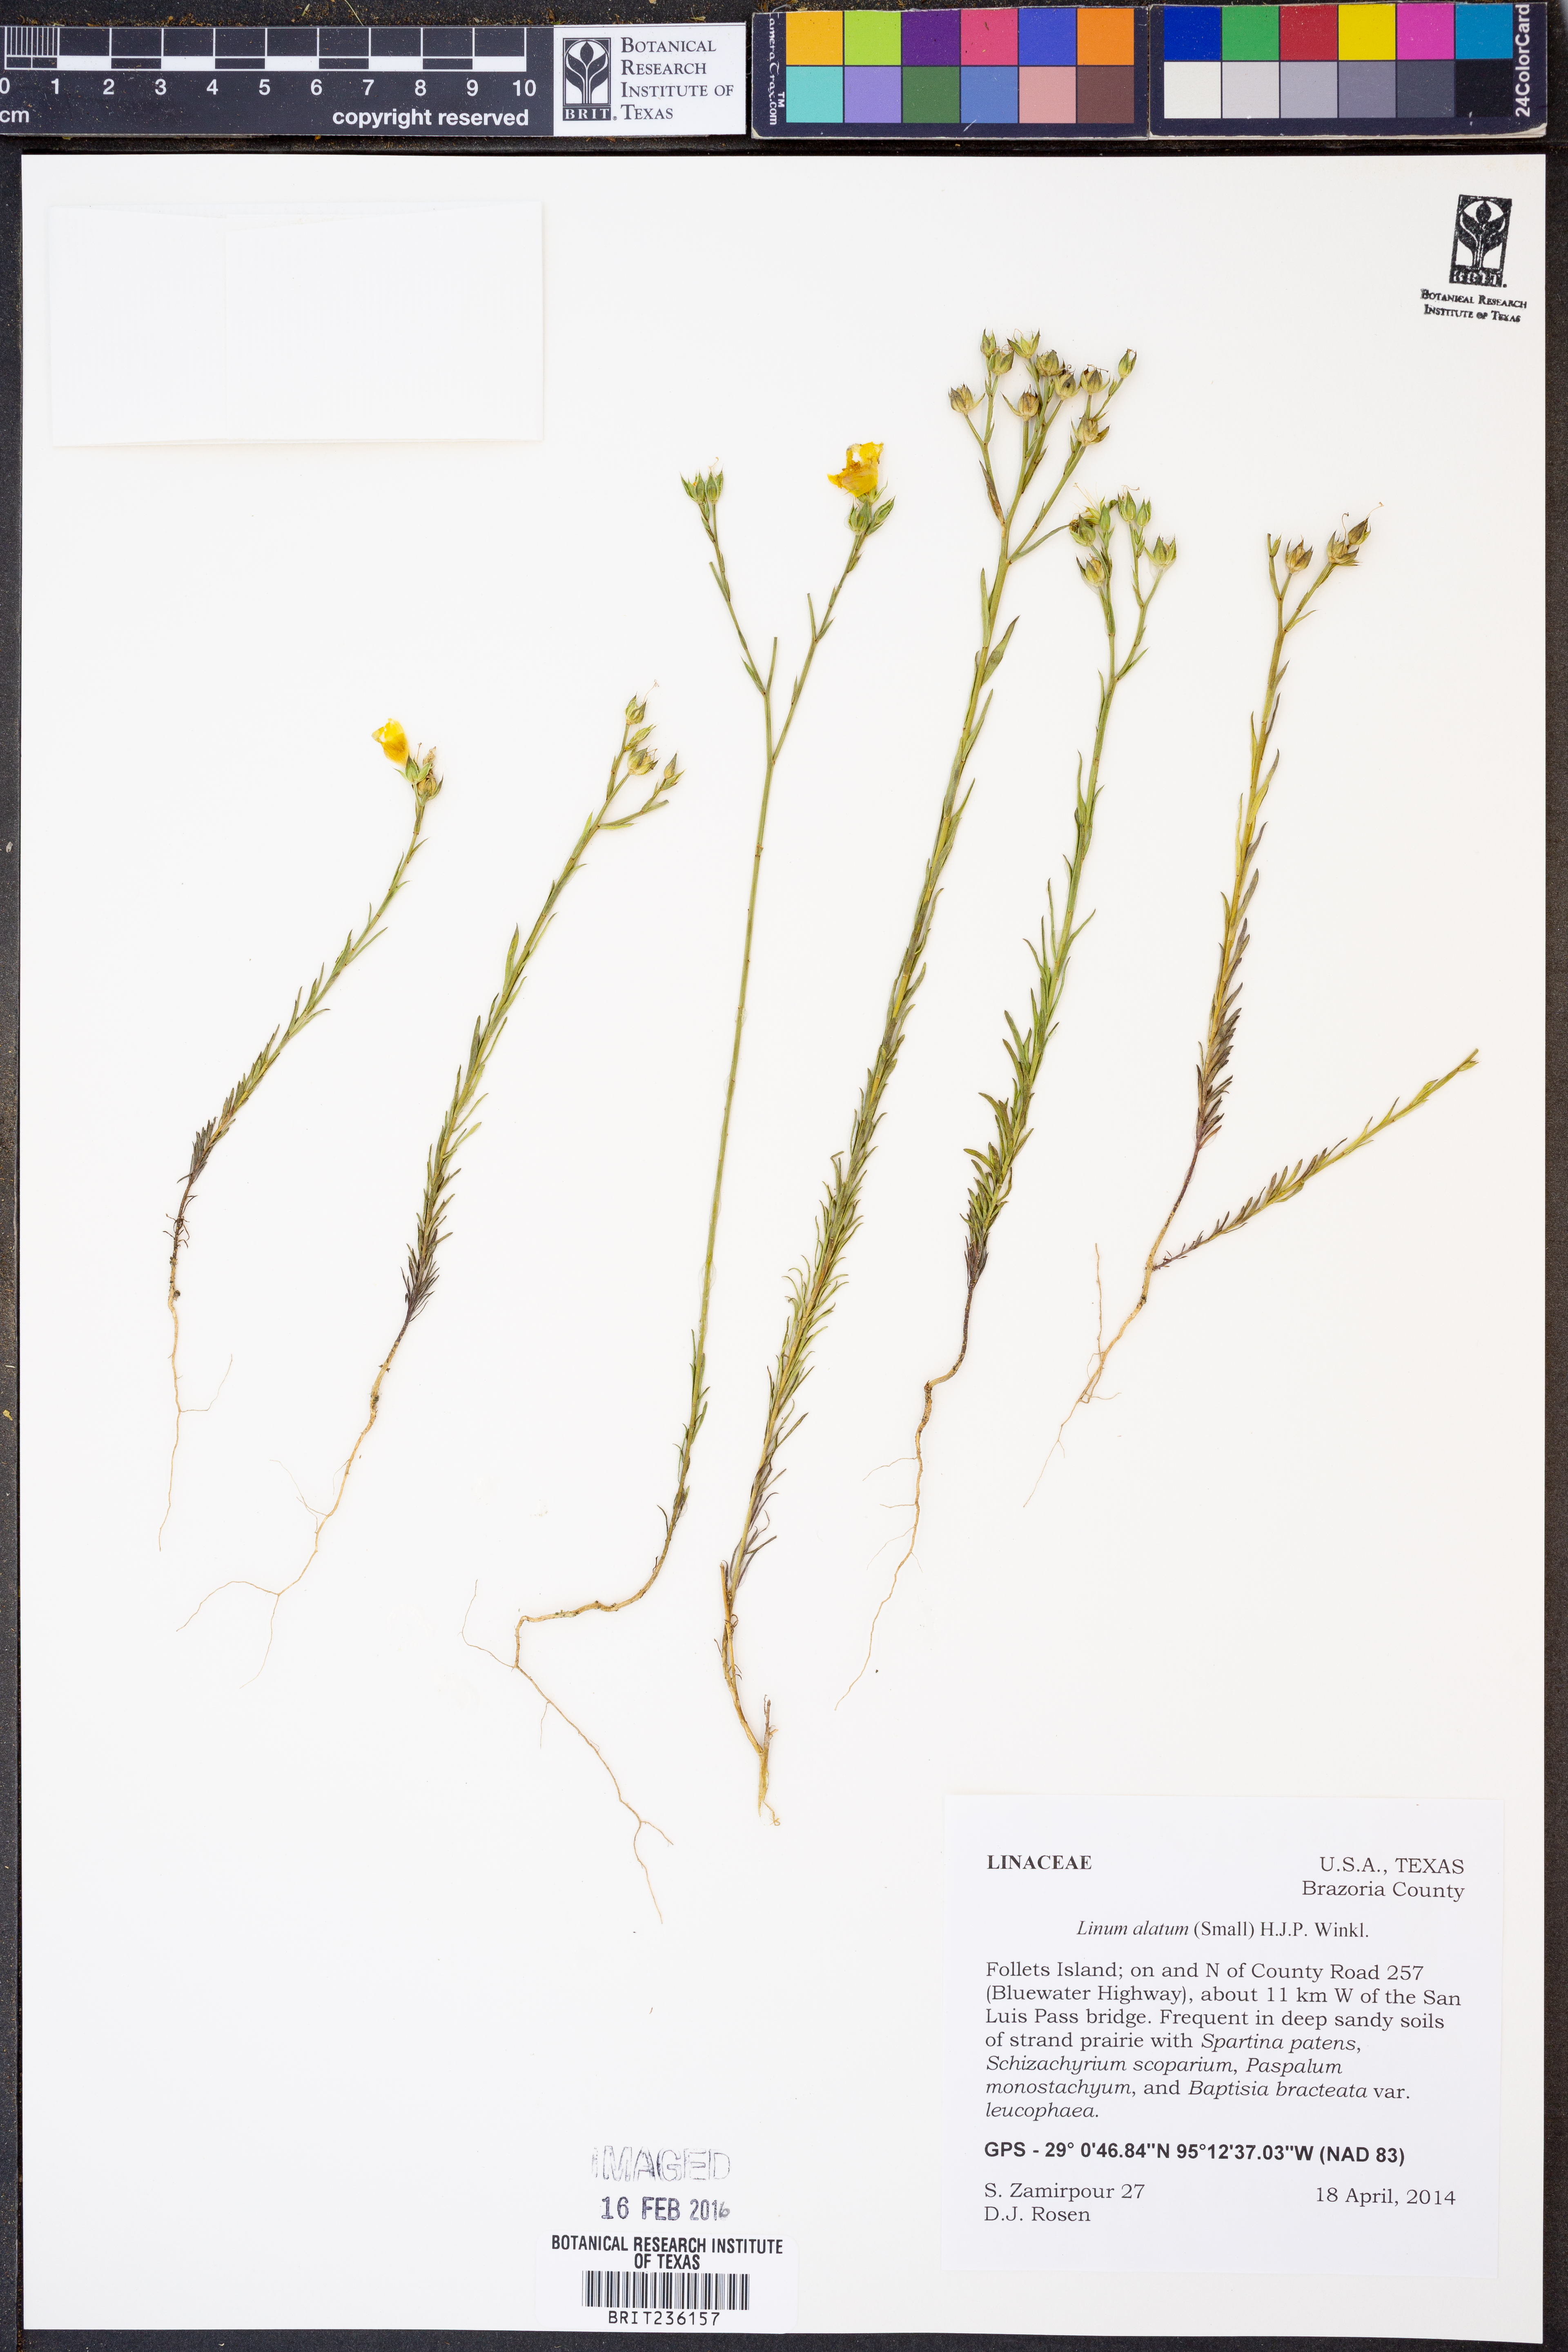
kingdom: Plantae
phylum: Tracheophyta
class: Magnoliopsida
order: Malpighiales
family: Linaceae
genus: Linum
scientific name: Linum alatum
